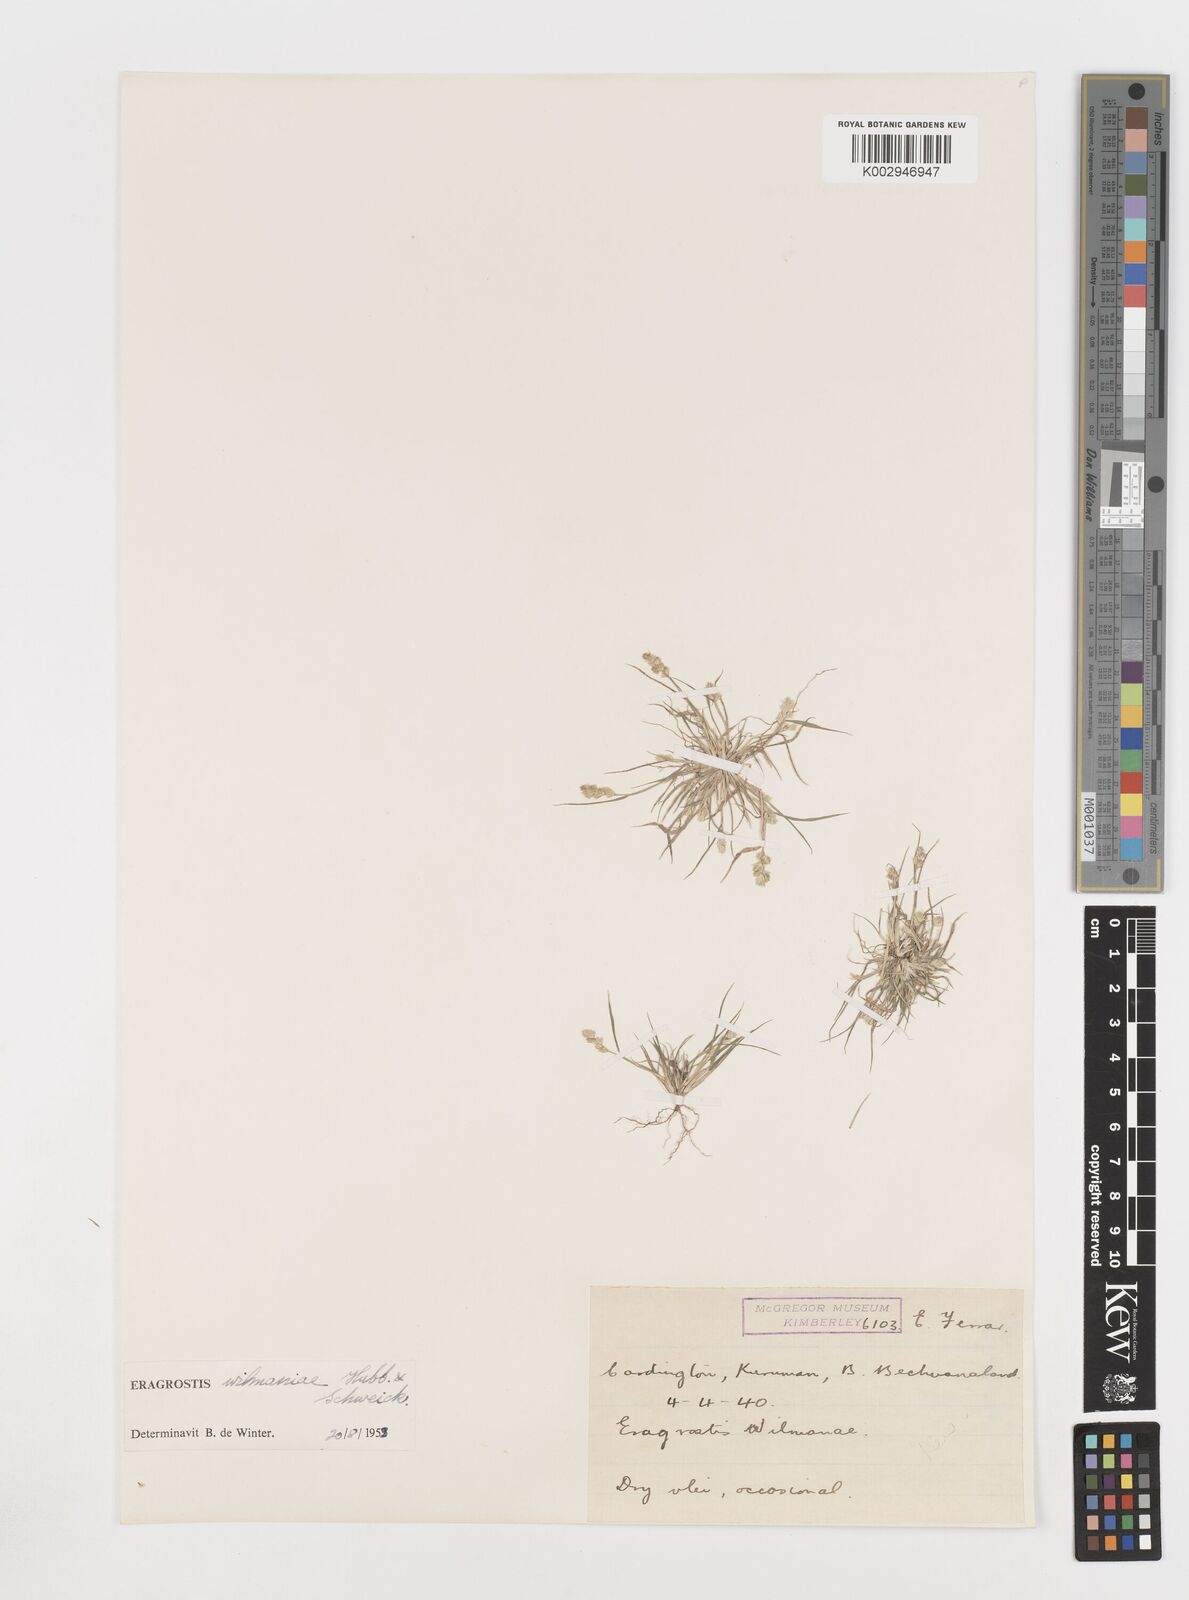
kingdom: Plantae
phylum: Tracheophyta
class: Liliopsida
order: Poales
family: Poaceae
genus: Eragrostis
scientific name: Eragrostis macrochlamys
